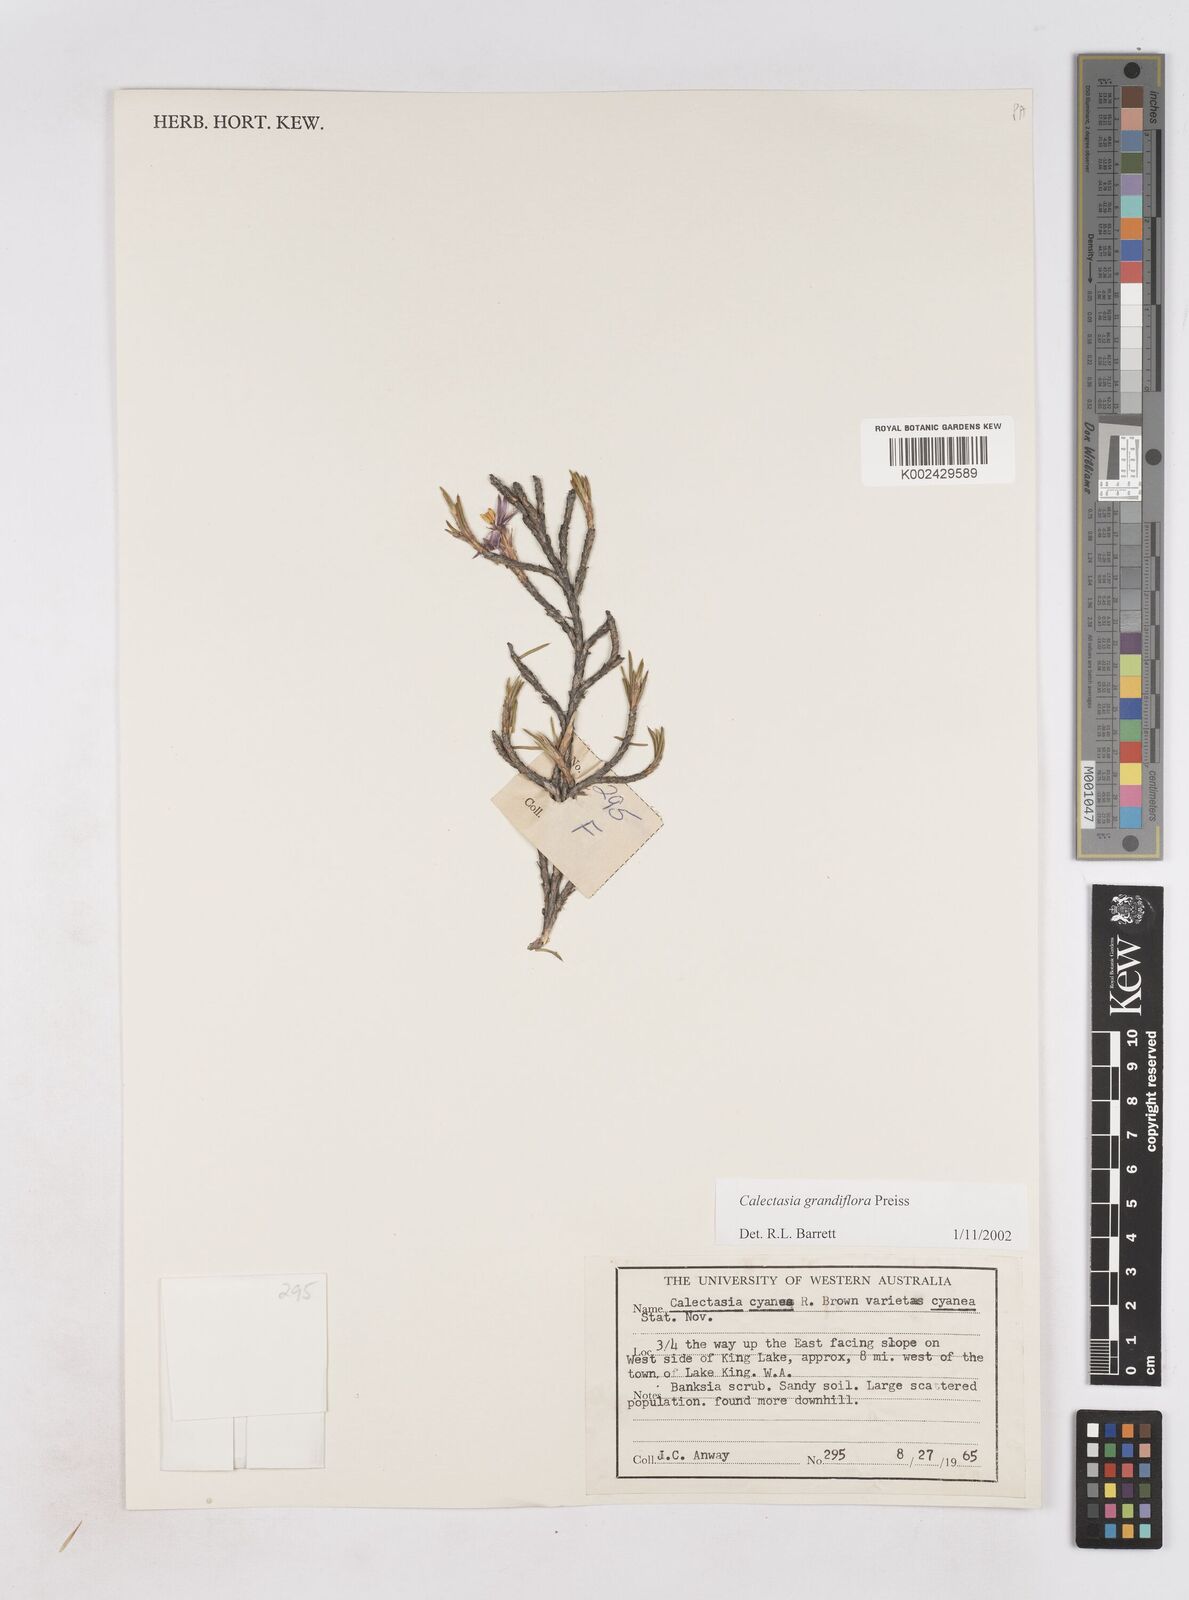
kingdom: Plantae
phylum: Tracheophyta
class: Liliopsida
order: Arecales
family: Dasypogonaceae
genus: Calectasia
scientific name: Calectasia grandiflora
